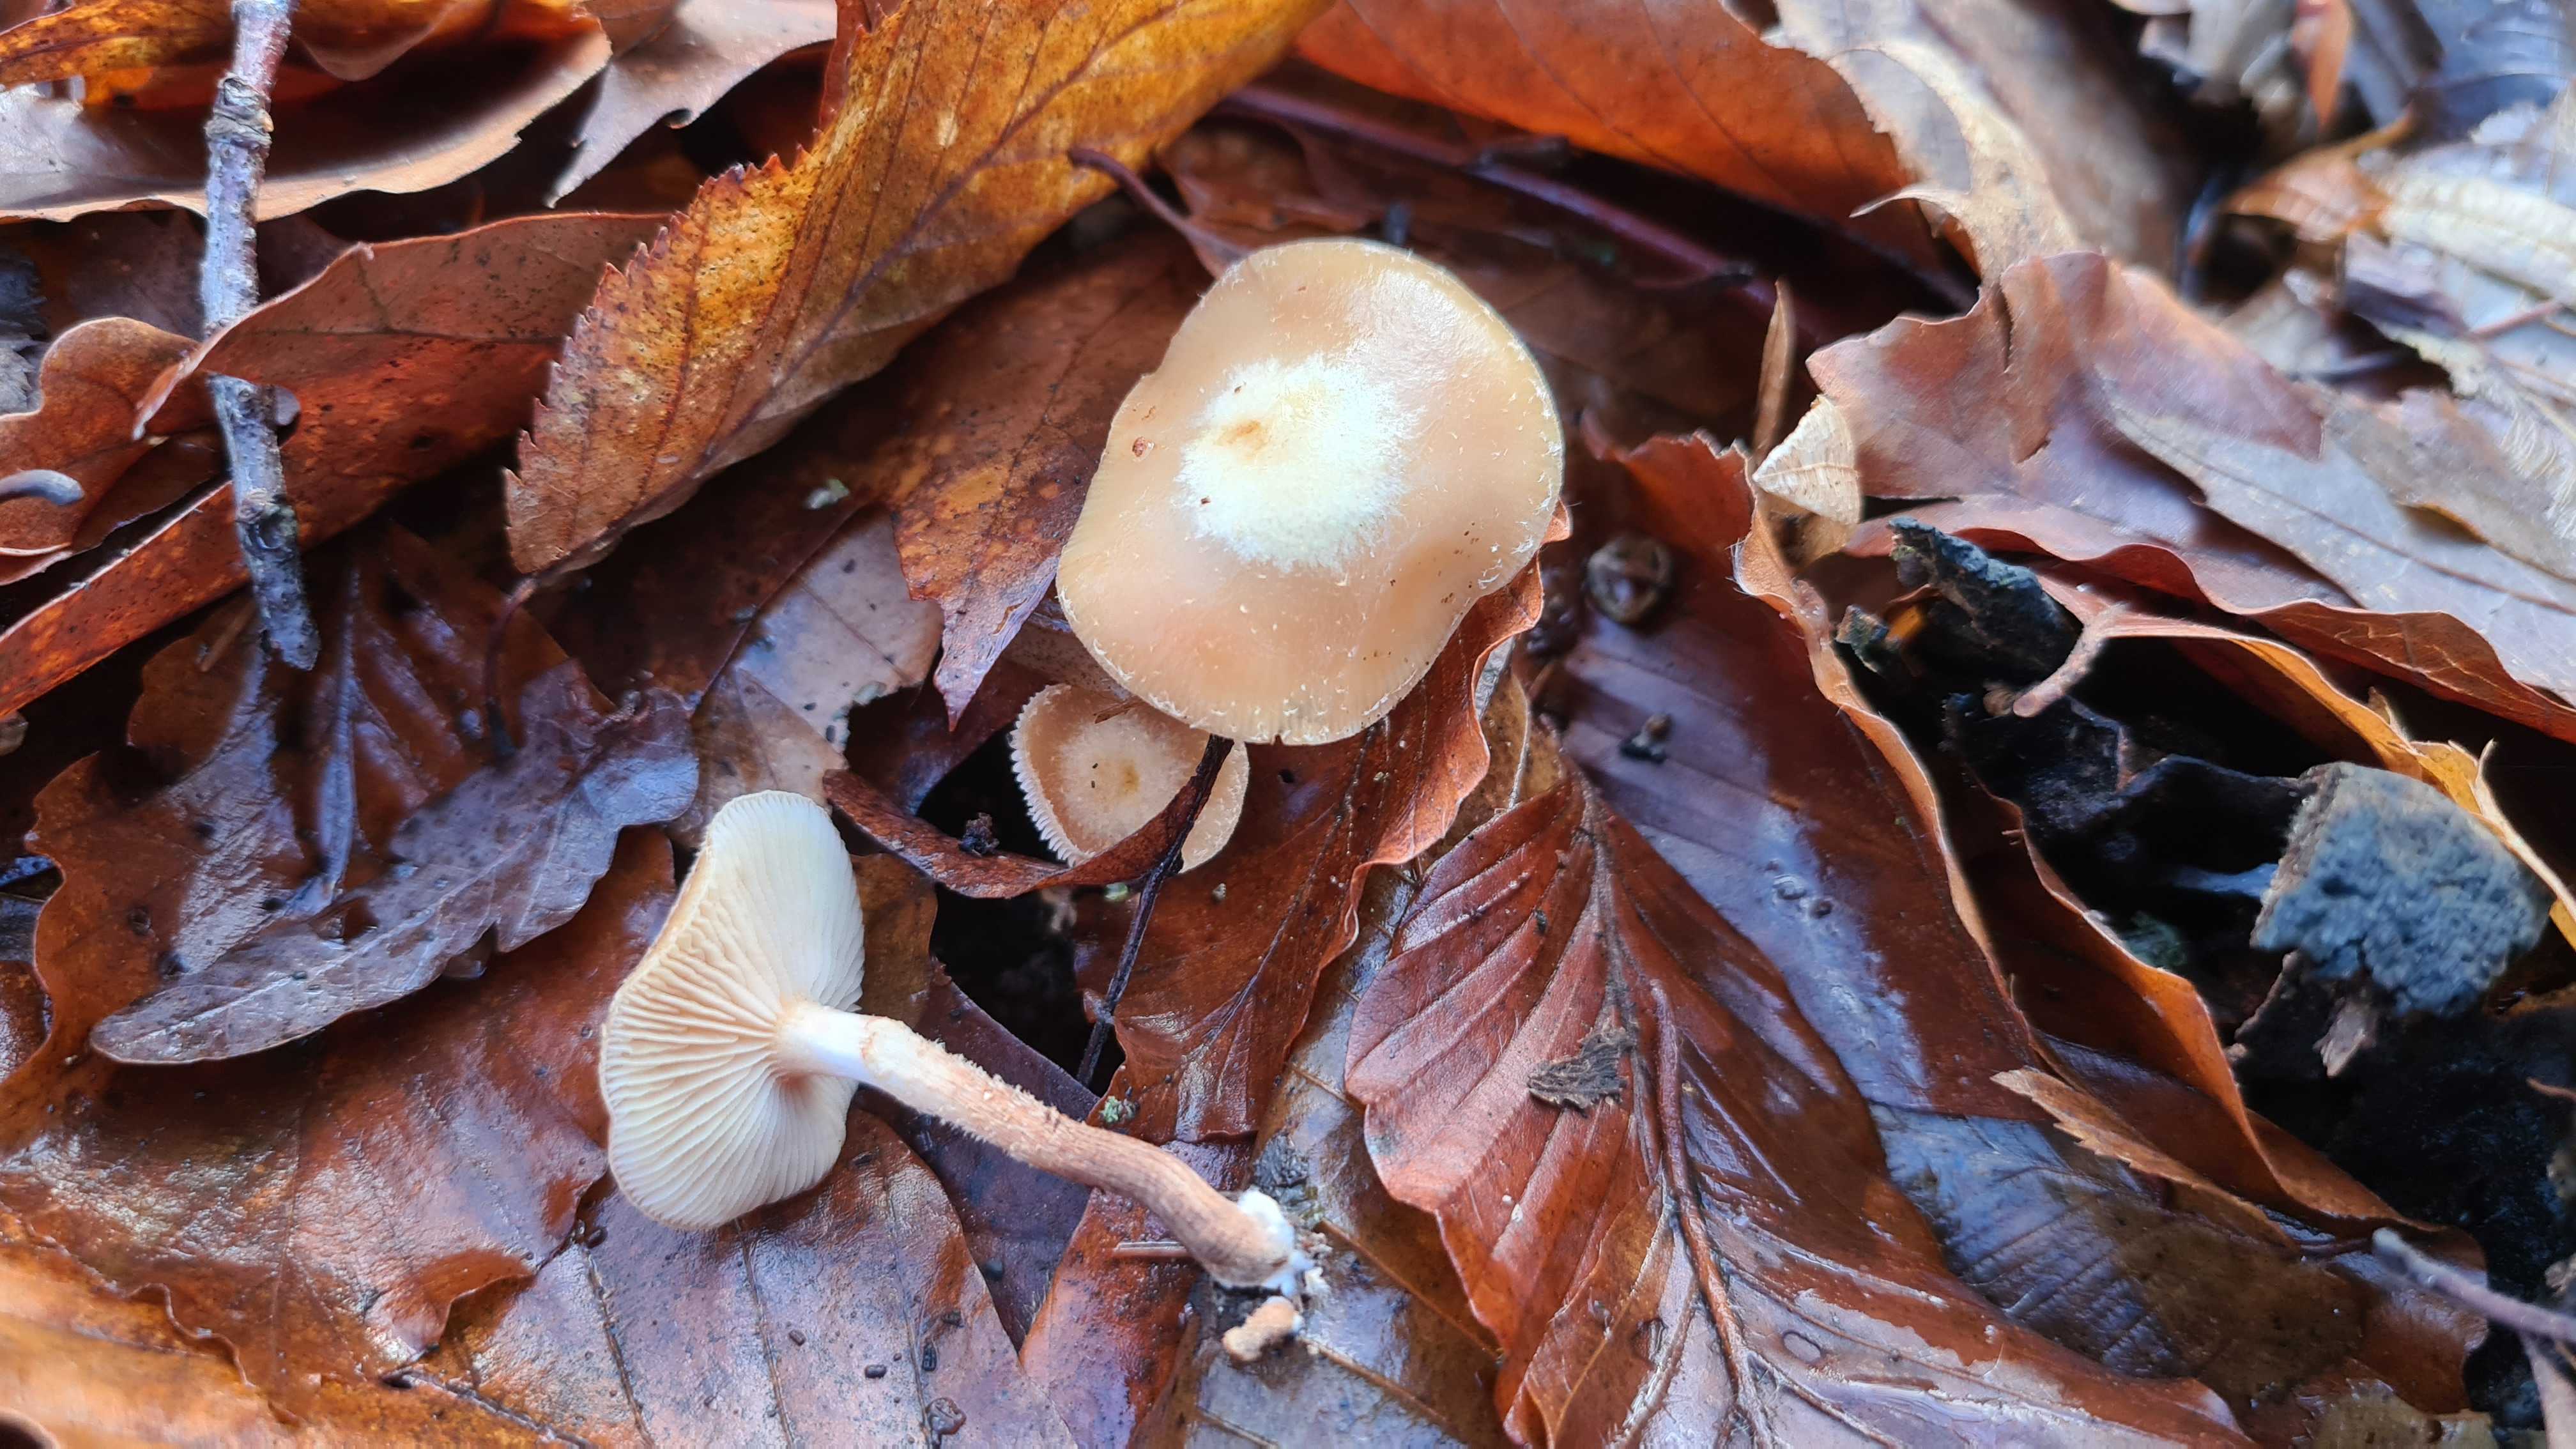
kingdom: Fungi
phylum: Basidiomycota
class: Agaricomycetes
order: Agaricales
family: Strophariaceae
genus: Kuehneromyces
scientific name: Kuehneromyces mutabilis
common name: foranderlig skælhat
